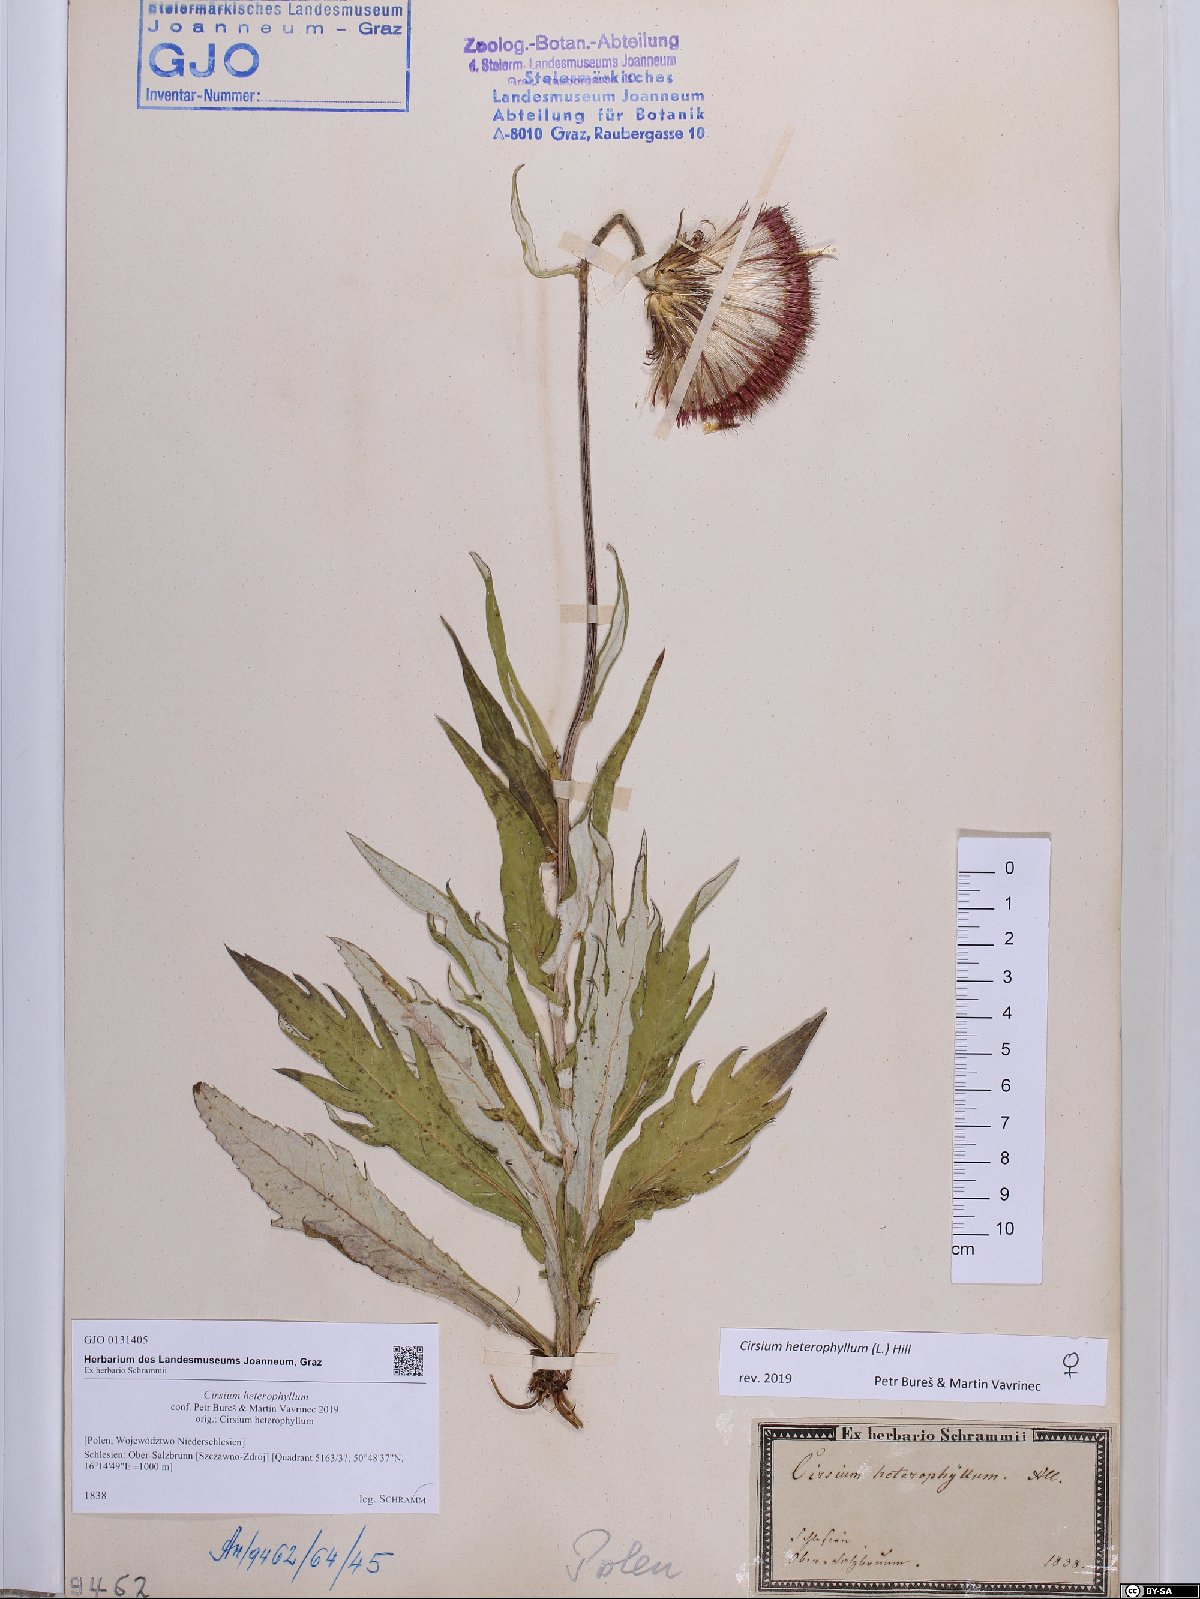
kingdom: Plantae
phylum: Tracheophyta
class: Magnoliopsida
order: Asterales
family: Asteraceae
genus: Cirsium
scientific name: Cirsium heterophyllum
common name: Melancholy thistle
